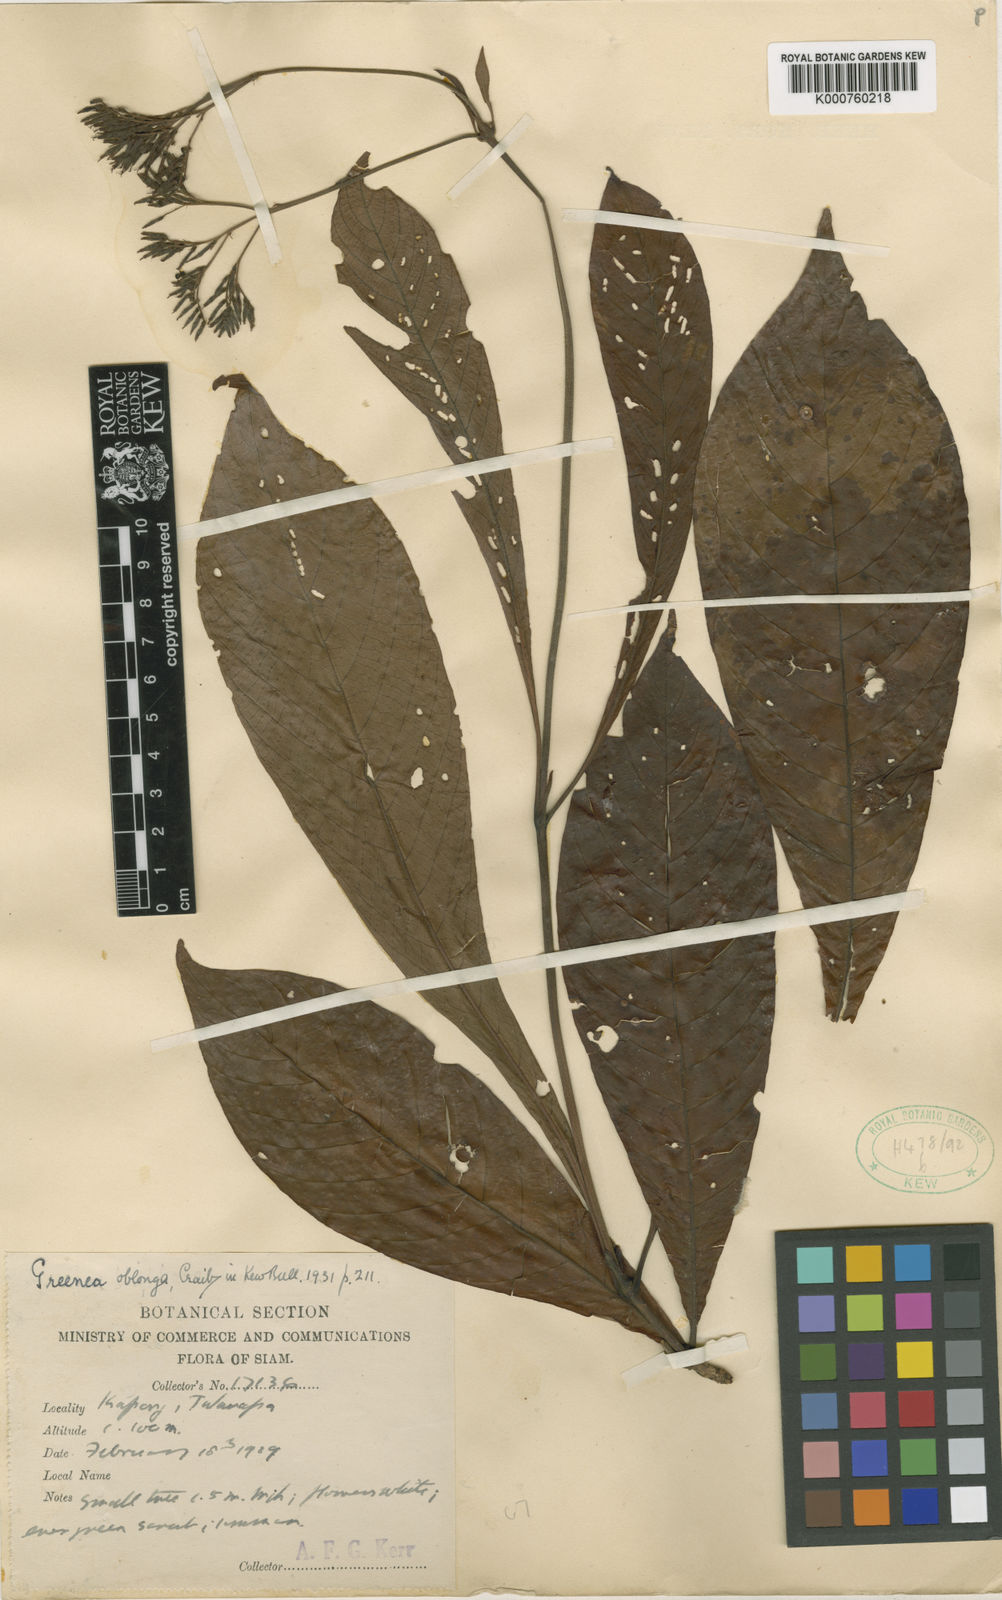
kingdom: Plantae
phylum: Tracheophyta
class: Magnoliopsida
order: Gentianales
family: Rubiaceae
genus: Greenea
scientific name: Greenea corymbosa
